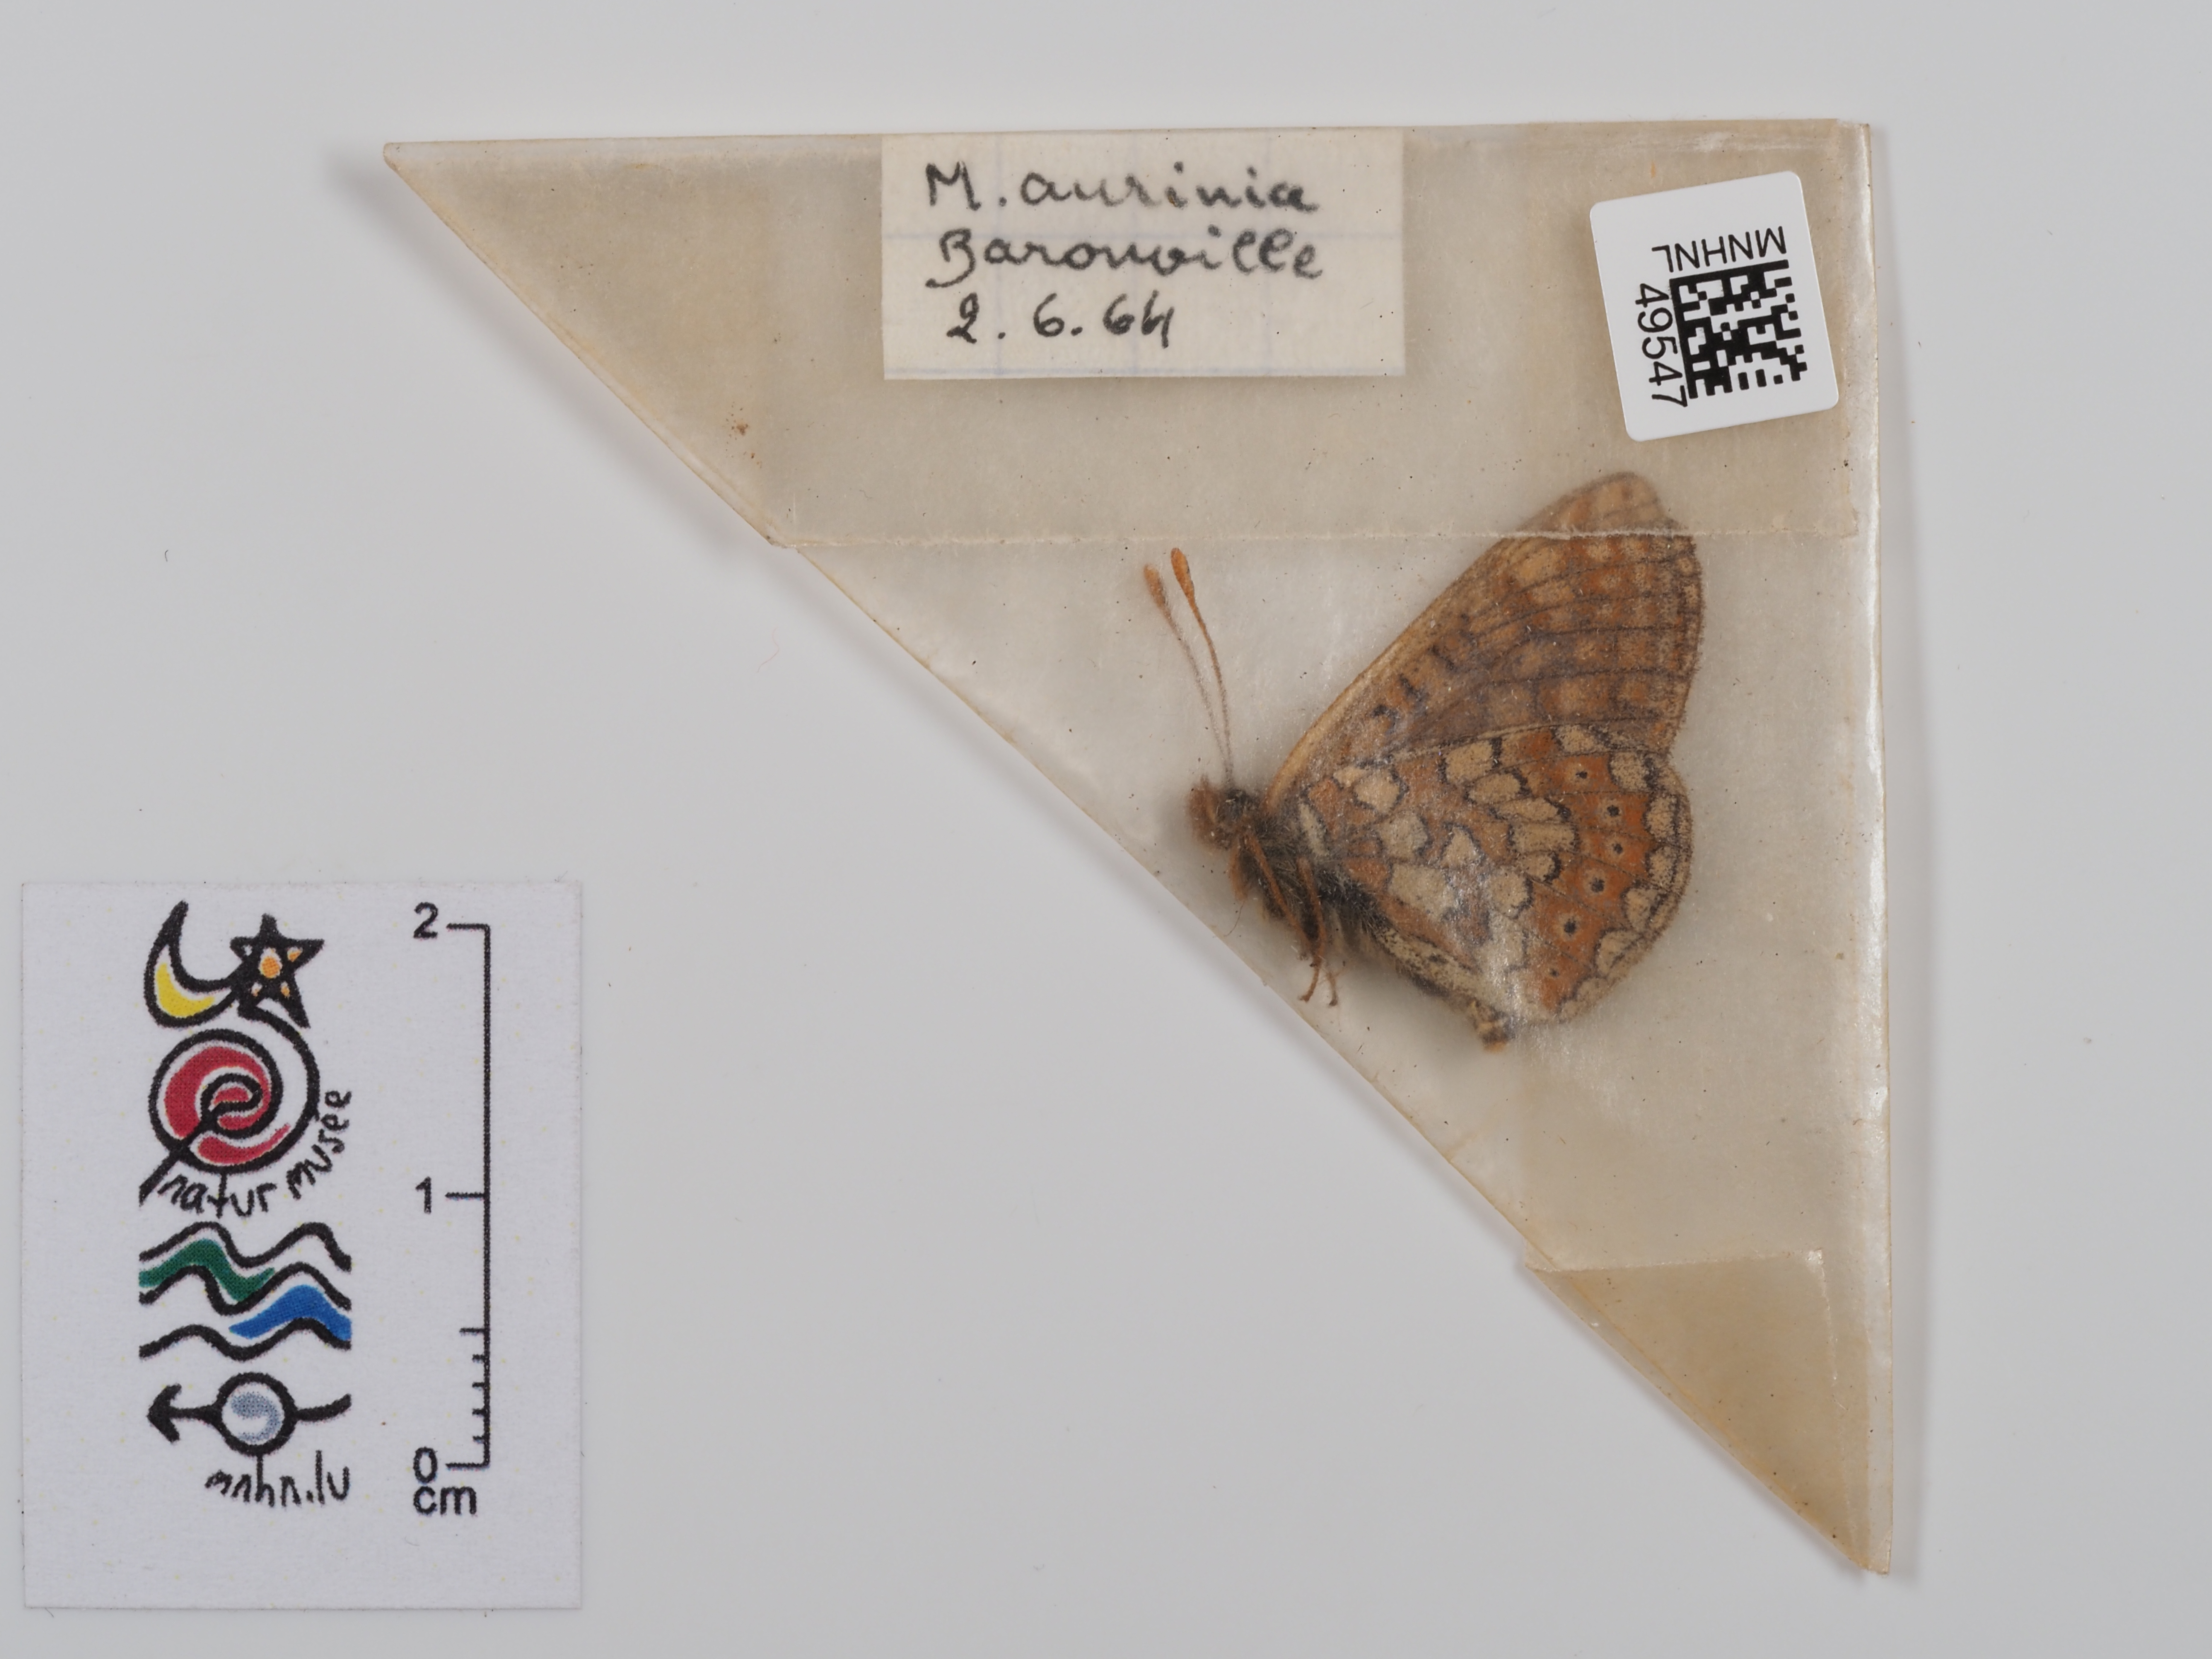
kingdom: Animalia
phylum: Arthropoda
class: Insecta
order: Lepidoptera
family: Nymphalidae
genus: Eurodryas
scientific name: Eurodryas aurinia
